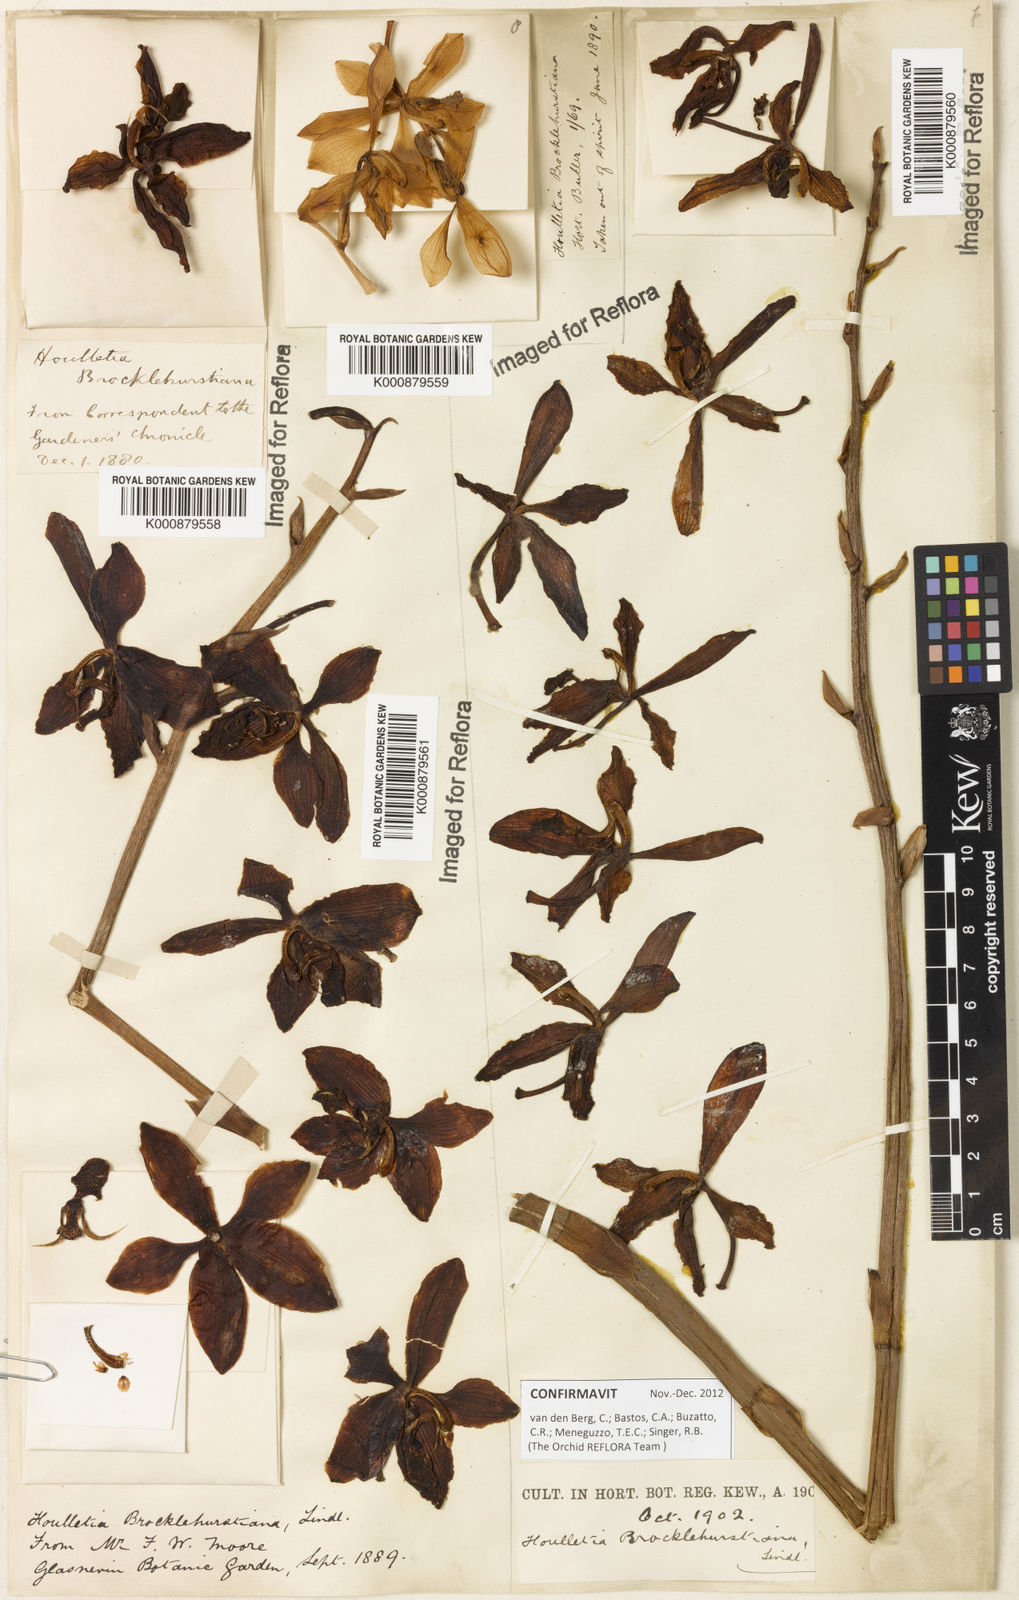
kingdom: Plantae
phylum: Tracheophyta
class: Liliopsida
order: Asparagales
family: Orchidaceae
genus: Houlletia
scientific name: Houlletia brocklehurstiana
